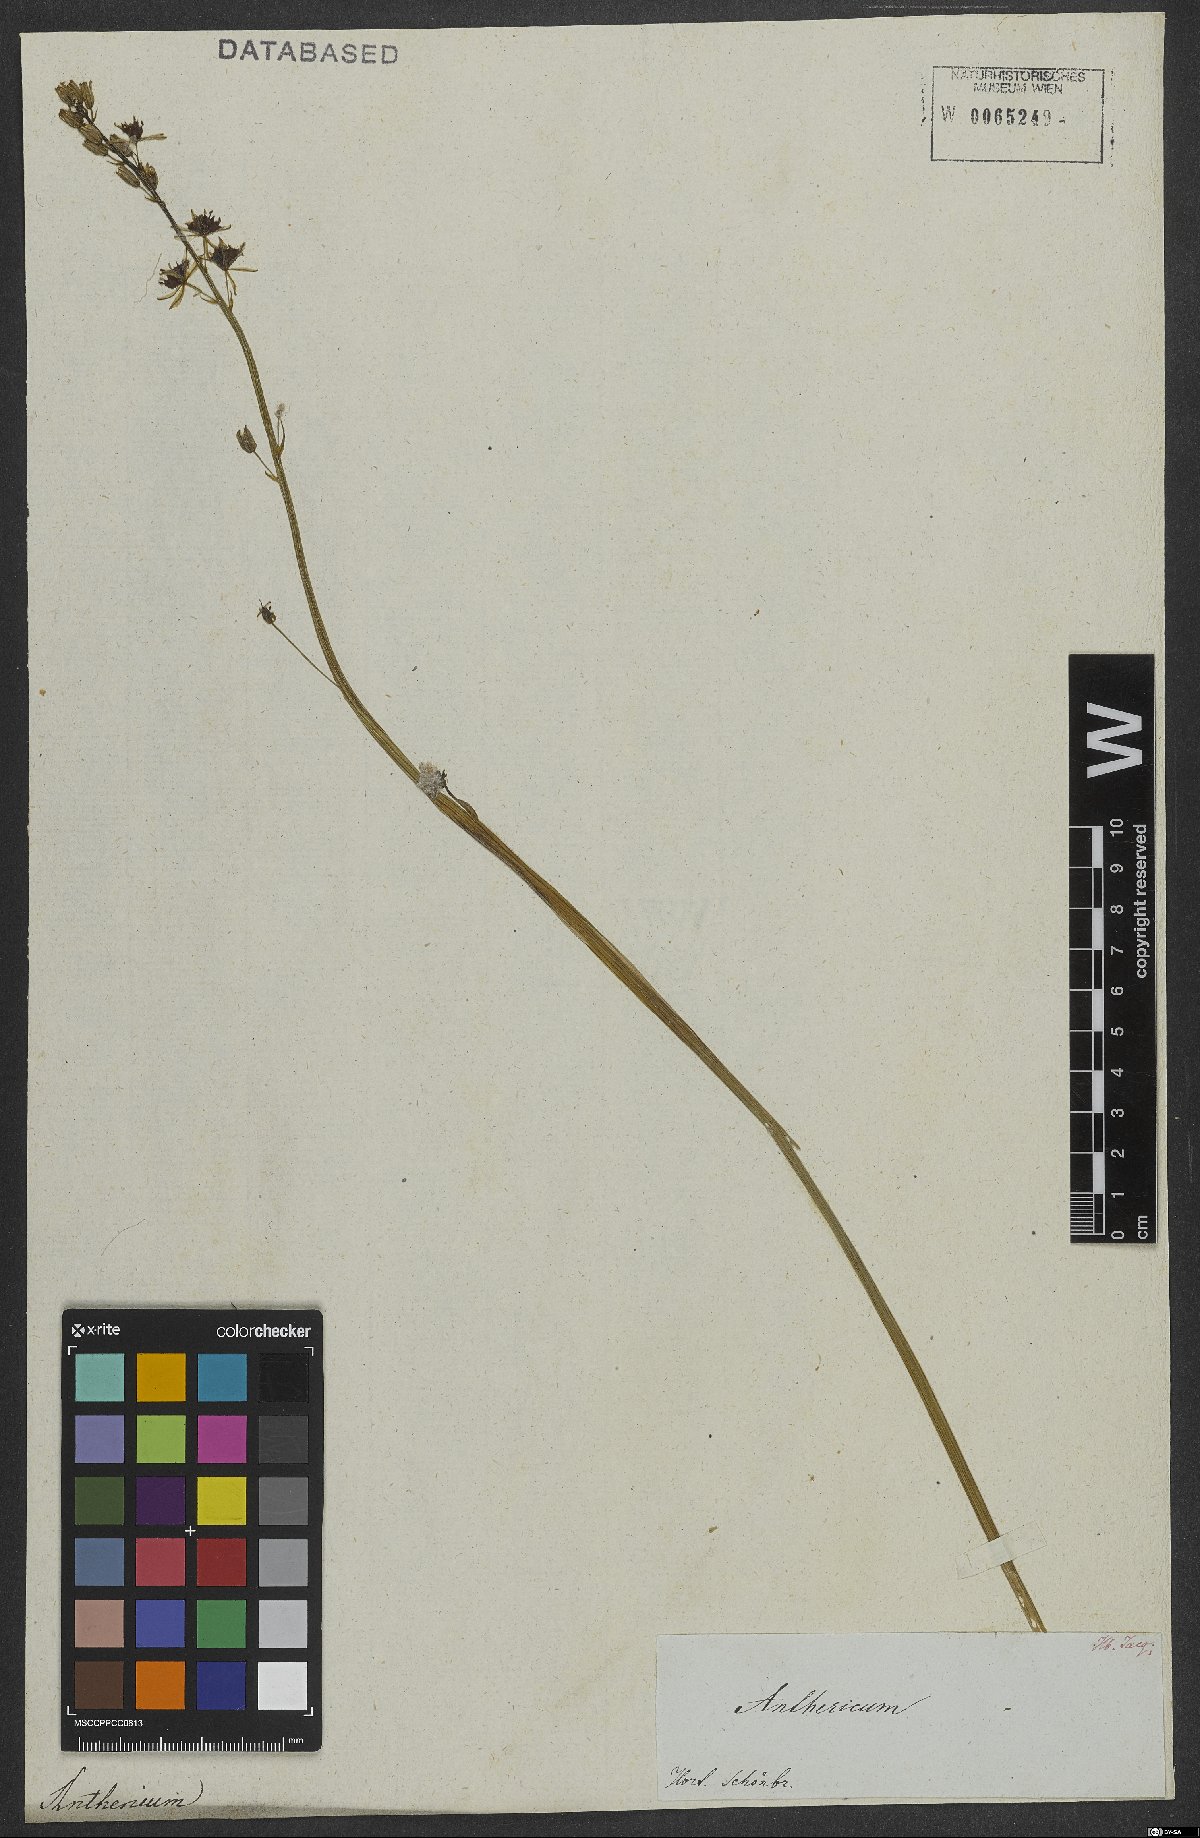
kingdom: Plantae
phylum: Tracheophyta
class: Liliopsida
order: Asparagales
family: Asparagaceae
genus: Anthericum
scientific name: Anthericum
